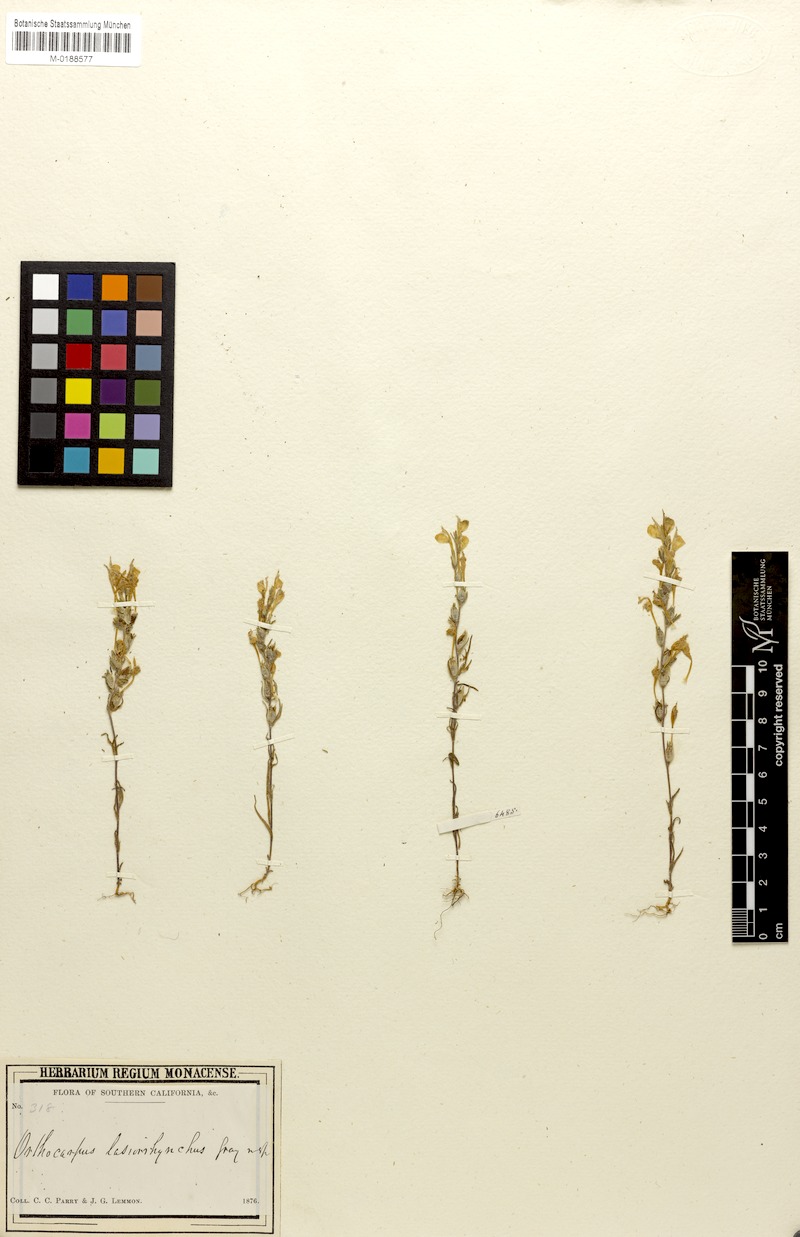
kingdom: Plantae
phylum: Tracheophyta
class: Magnoliopsida
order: Lamiales
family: Orobanchaceae
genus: Castilleja
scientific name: Castilleja lasiorhyncha
